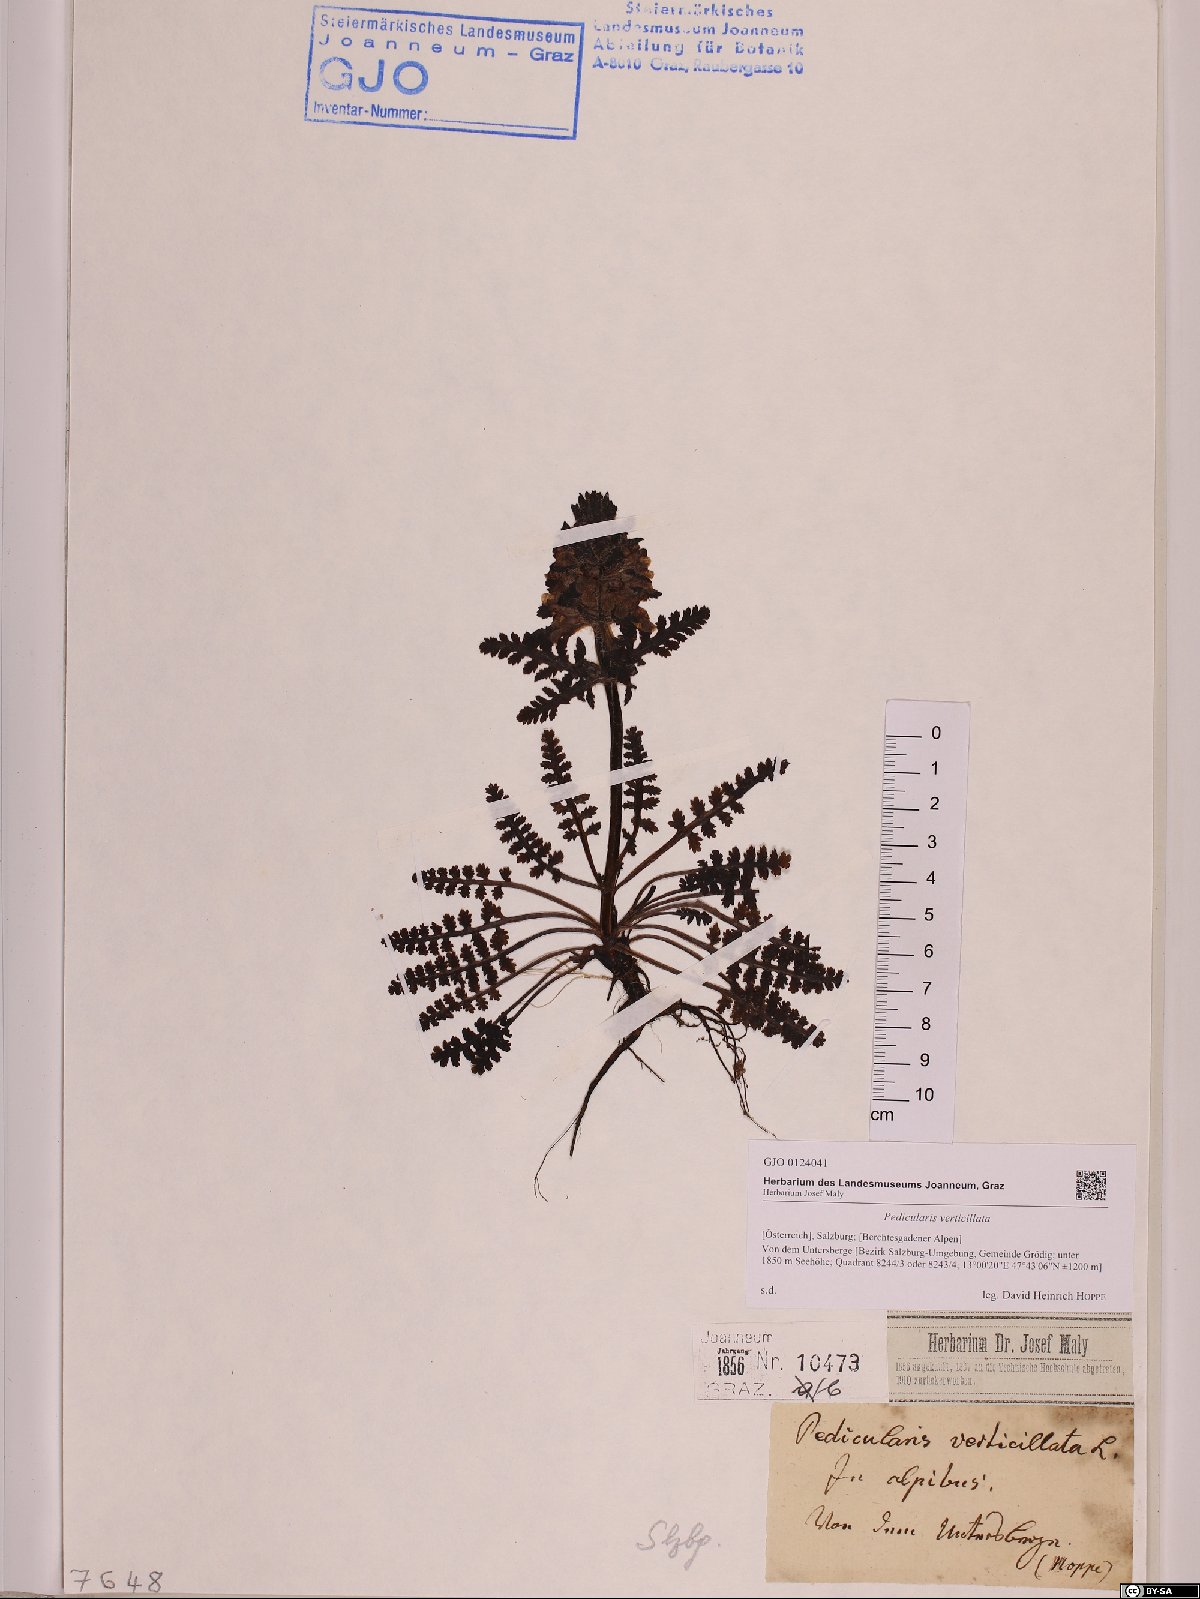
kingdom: Plantae
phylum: Tracheophyta
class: Magnoliopsida
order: Lamiales
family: Orobanchaceae
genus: Pedicularis
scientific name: Pedicularis verticillata
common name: Whorled lousewort
